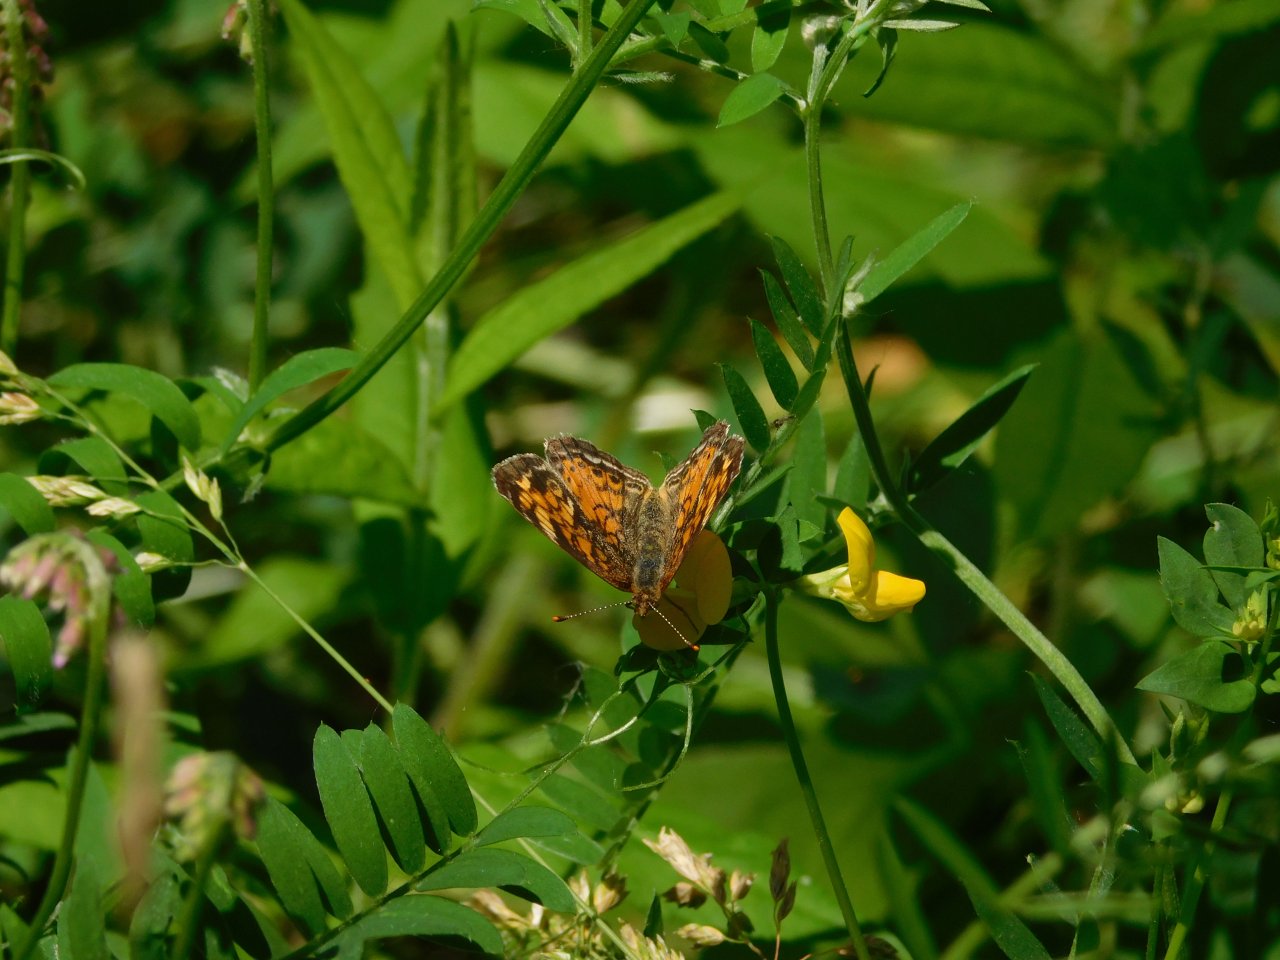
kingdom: Animalia
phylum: Arthropoda
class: Insecta
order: Lepidoptera
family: Nymphalidae
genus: Phyciodes
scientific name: Phyciodes tharos
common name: Northern Crescent
